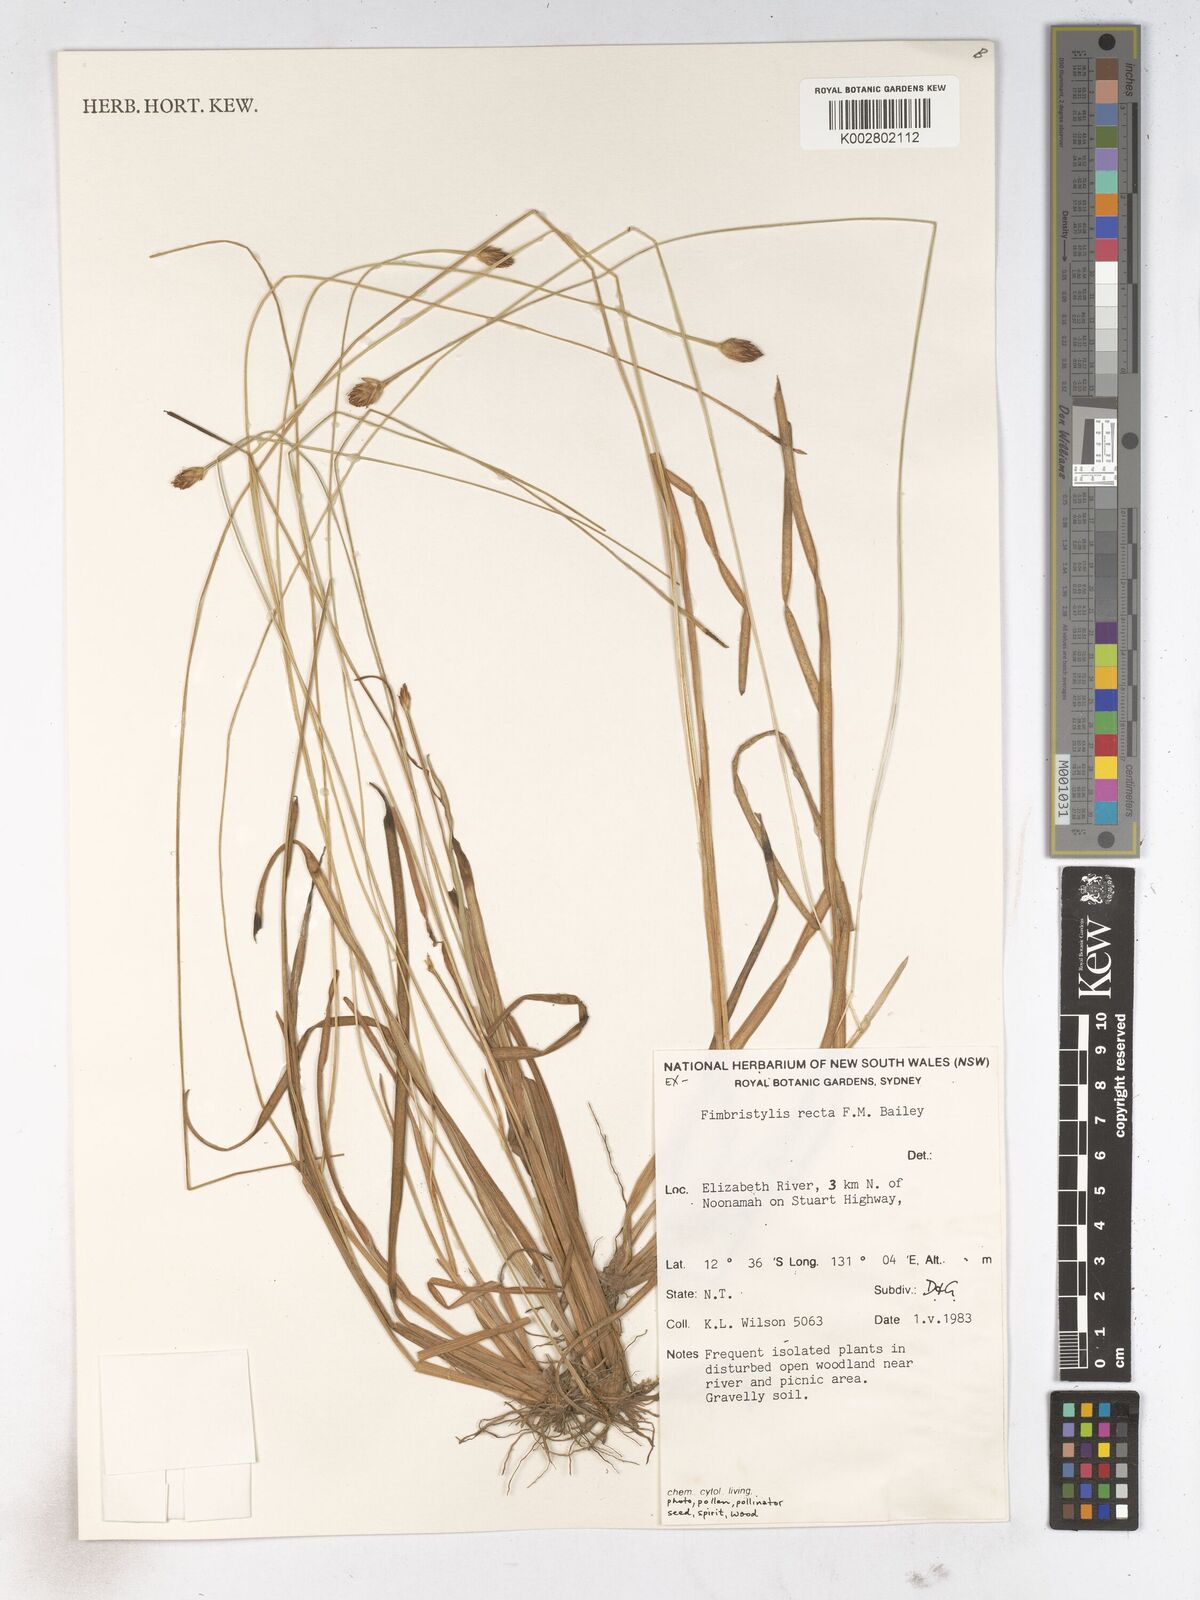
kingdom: Plantae
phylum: Tracheophyta
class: Liliopsida
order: Poales
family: Cyperaceae
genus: Fimbristylis
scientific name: Fimbristylis recta
